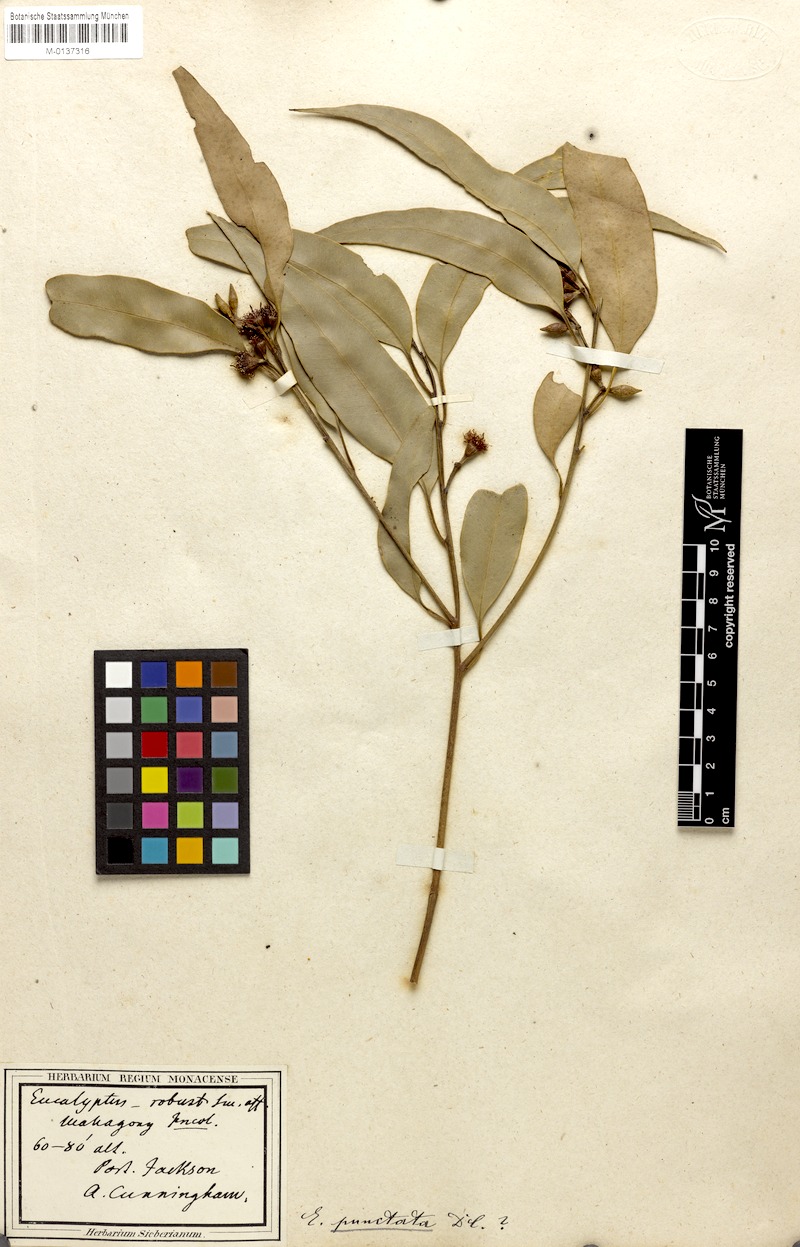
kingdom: Plantae
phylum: Tracheophyta
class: Magnoliopsida
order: Myrtales
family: Myrtaceae
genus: Eucalyptus
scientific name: Eucalyptus punctata
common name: Gray gum
